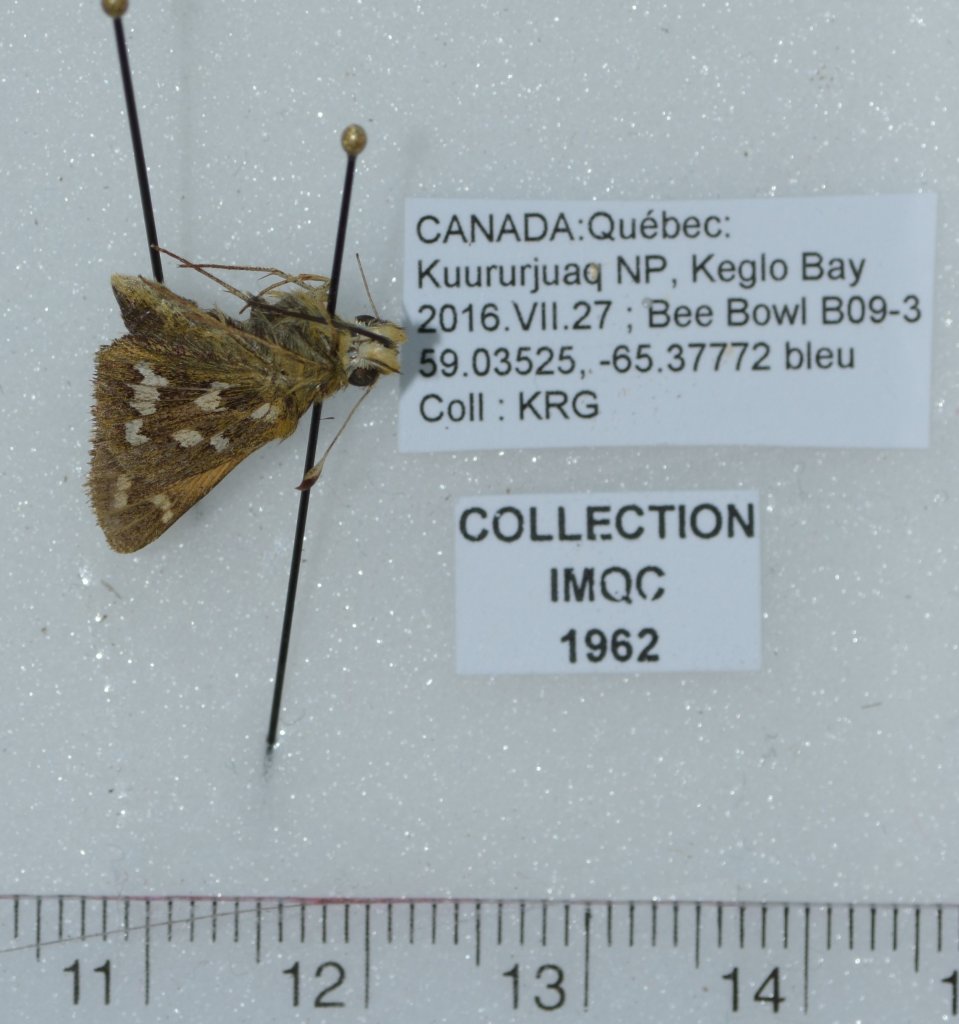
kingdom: Animalia
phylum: Arthropoda
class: Insecta
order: Lepidoptera
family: Hesperiidae
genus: Hesperia
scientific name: Hesperia comma
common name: Common Branded Skipper
